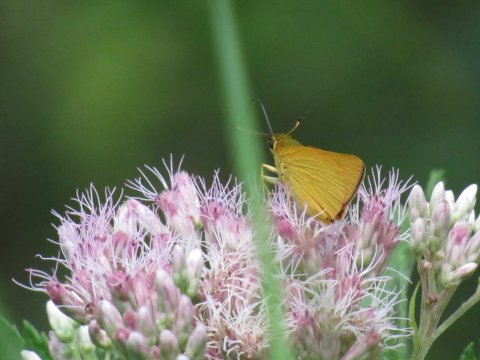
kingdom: Animalia
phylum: Arthropoda
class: Insecta
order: Lepidoptera
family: Hesperiidae
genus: Atrytone
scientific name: Atrytone delaware
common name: Delaware Skipper
